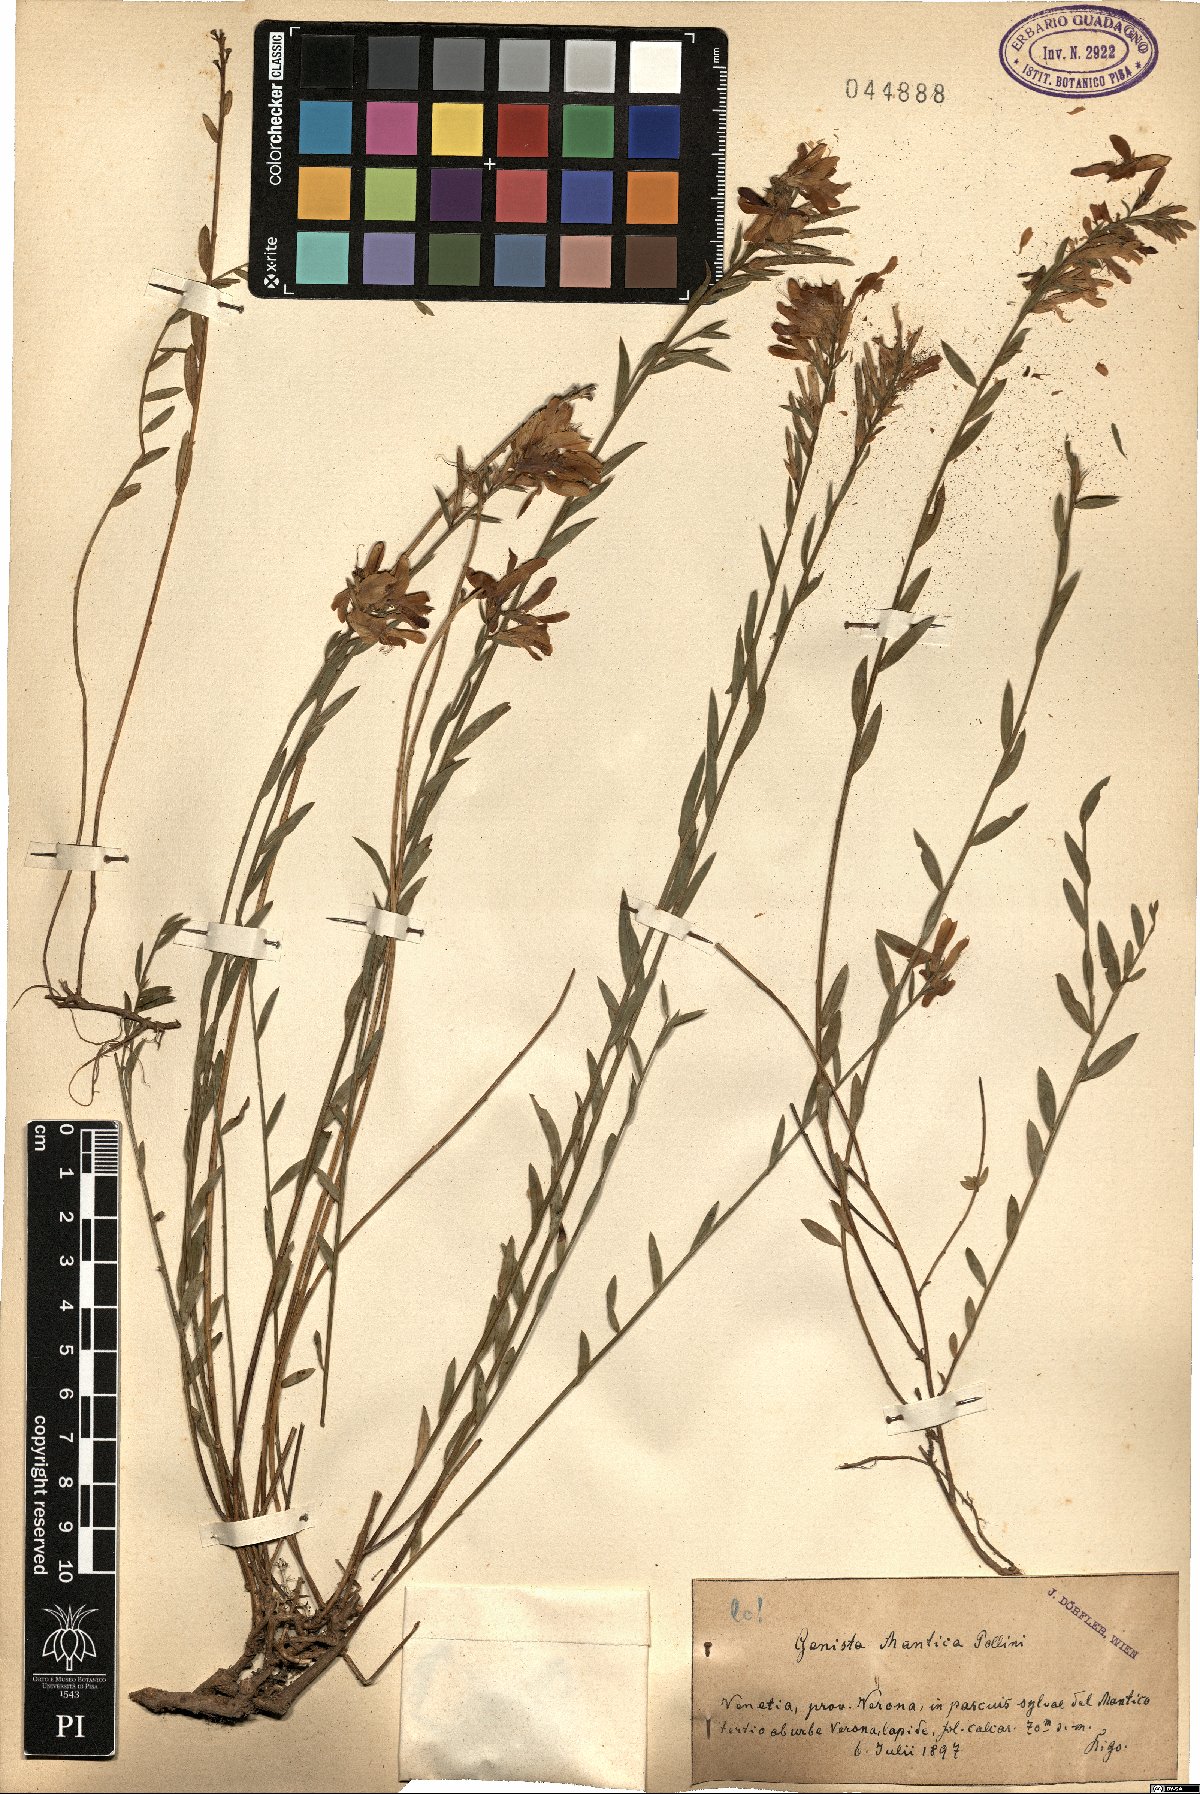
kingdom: Plantae
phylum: Tracheophyta
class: Magnoliopsida
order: Fabales
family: Fabaceae
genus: Genista
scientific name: Genista tinctoria
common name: Dyer's greenweed
